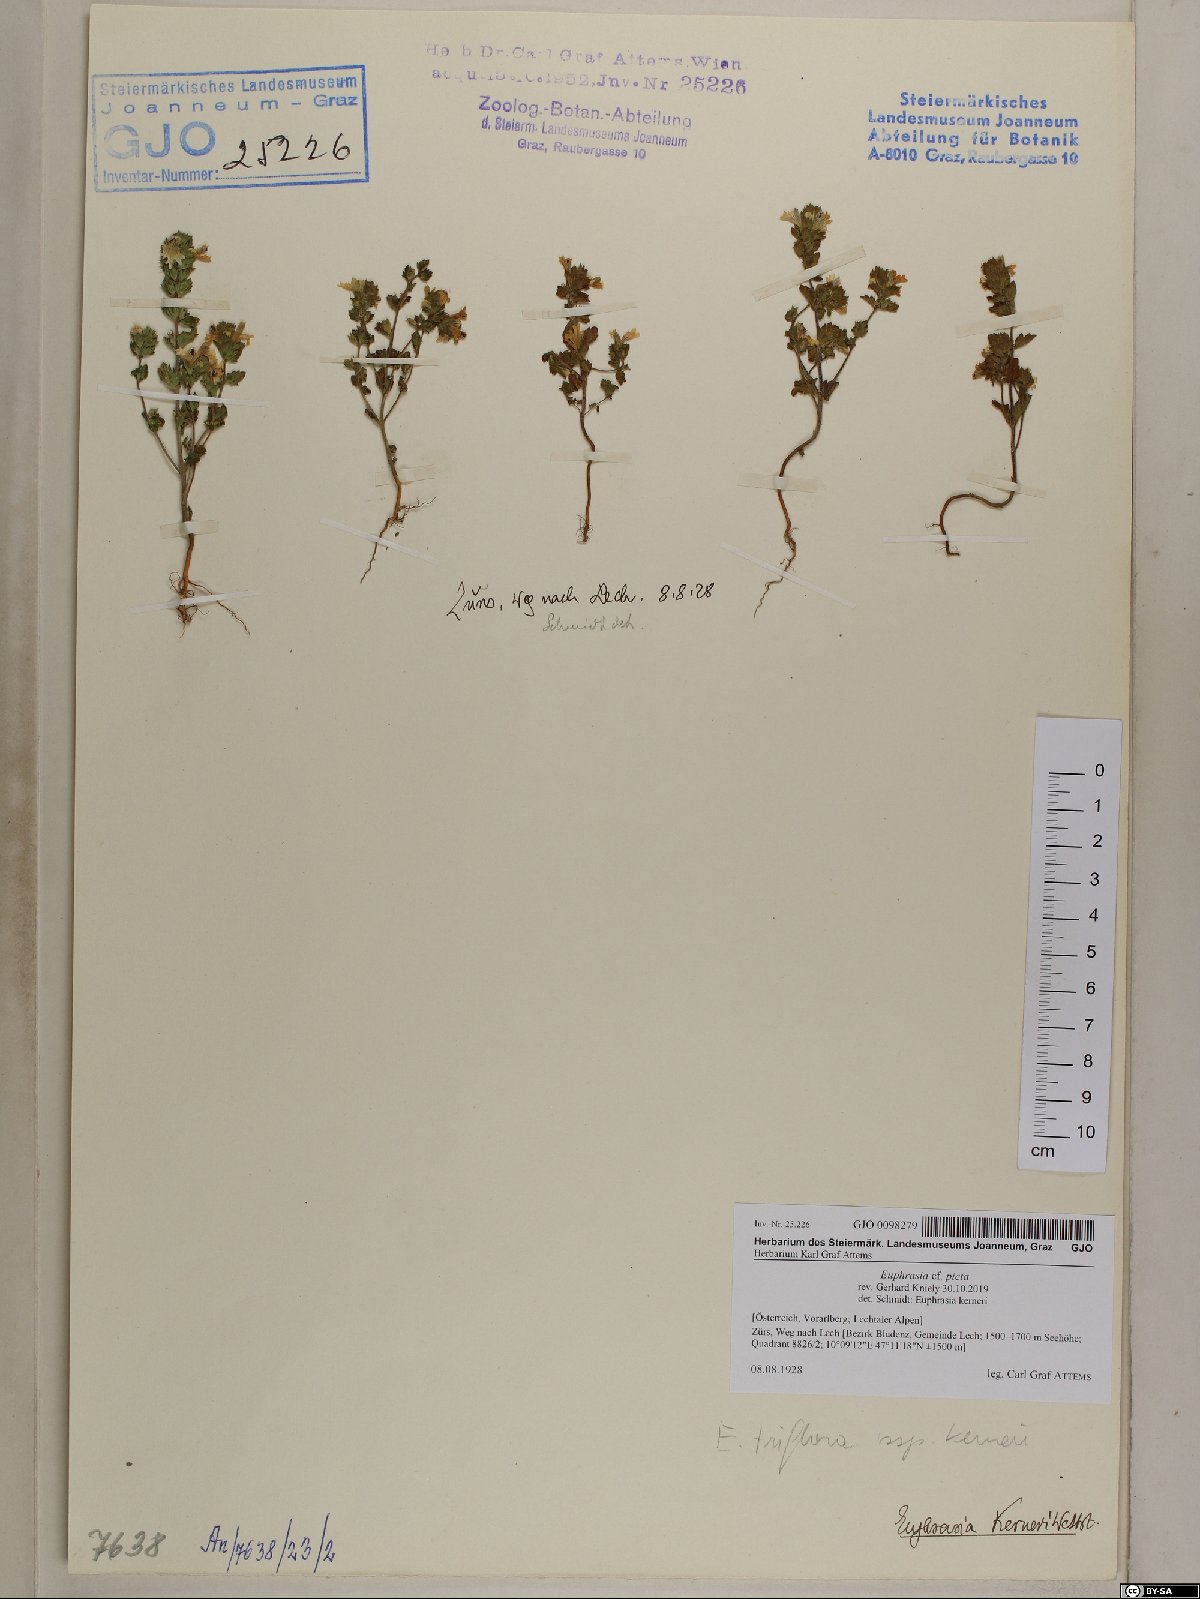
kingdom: Plantae
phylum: Tracheophyta
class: Magnoliopsida
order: Lamiales
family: Orobanchaceae
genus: Euphrasia
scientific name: Euphrasia picta
